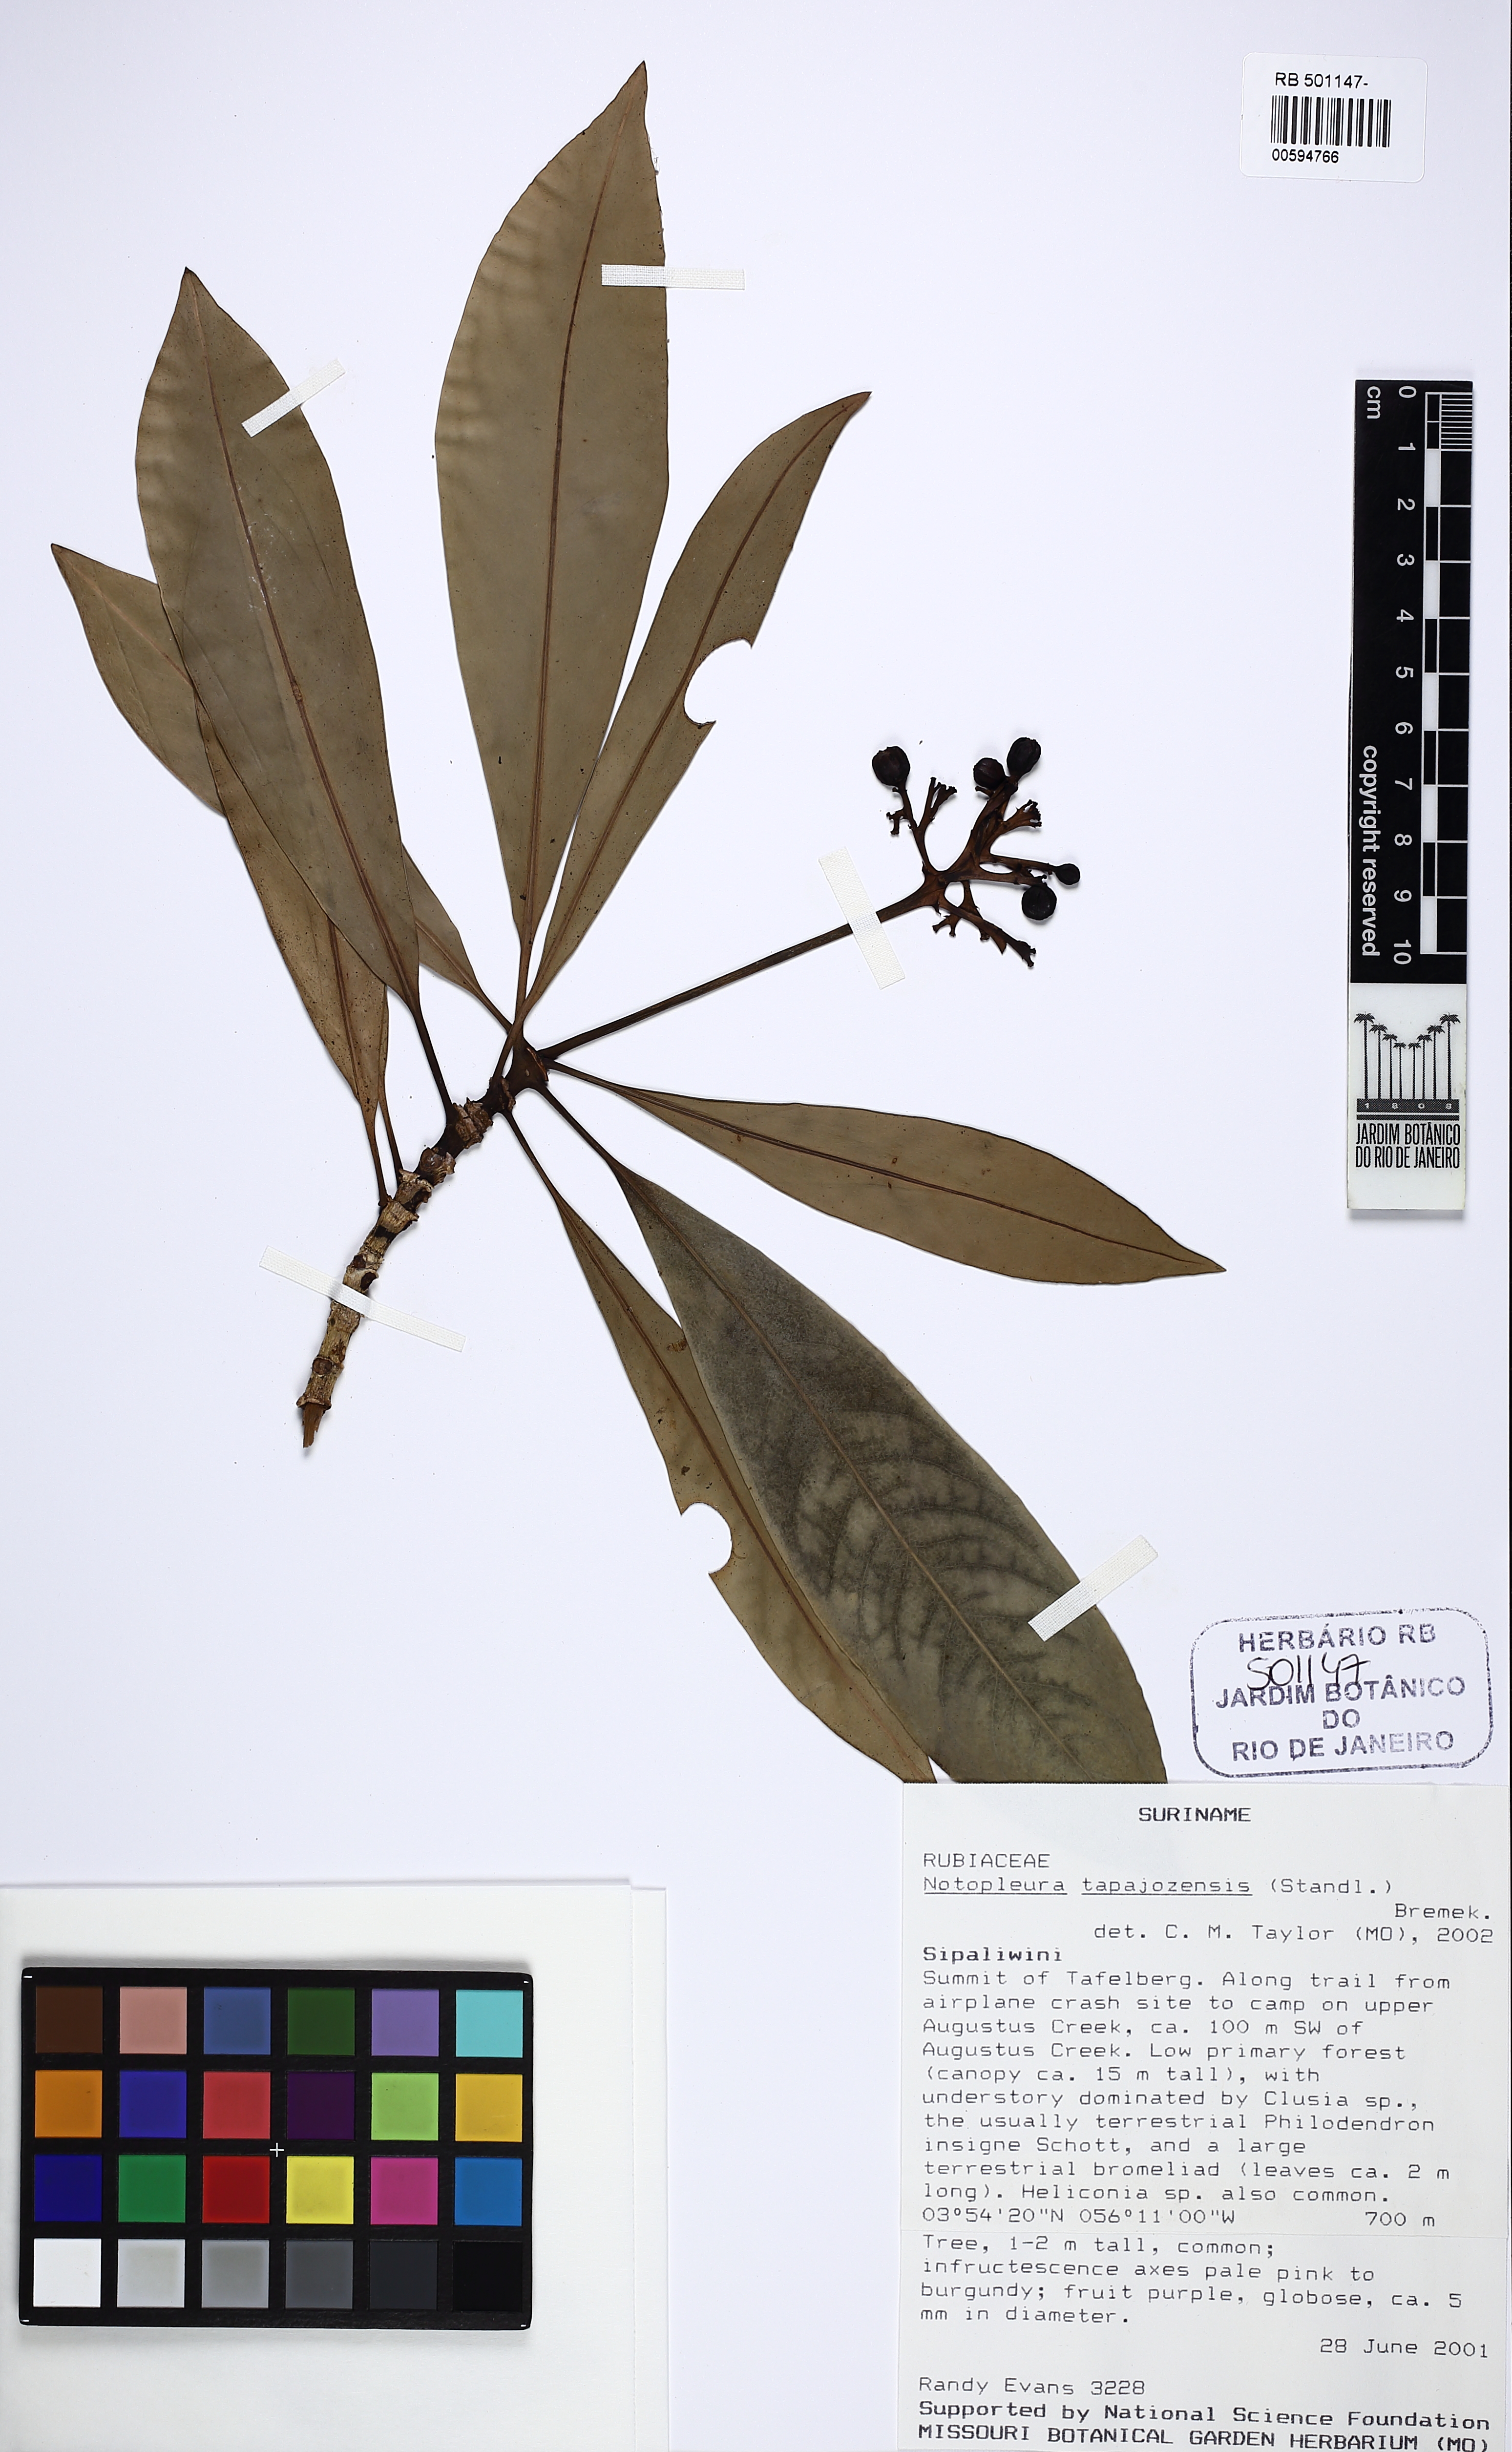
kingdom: Plantae
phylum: Tracheophyta
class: Magnoliopsida
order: Gentianales
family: Rubiaceae
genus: Notopleura
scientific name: Notopleura tapajozensis
